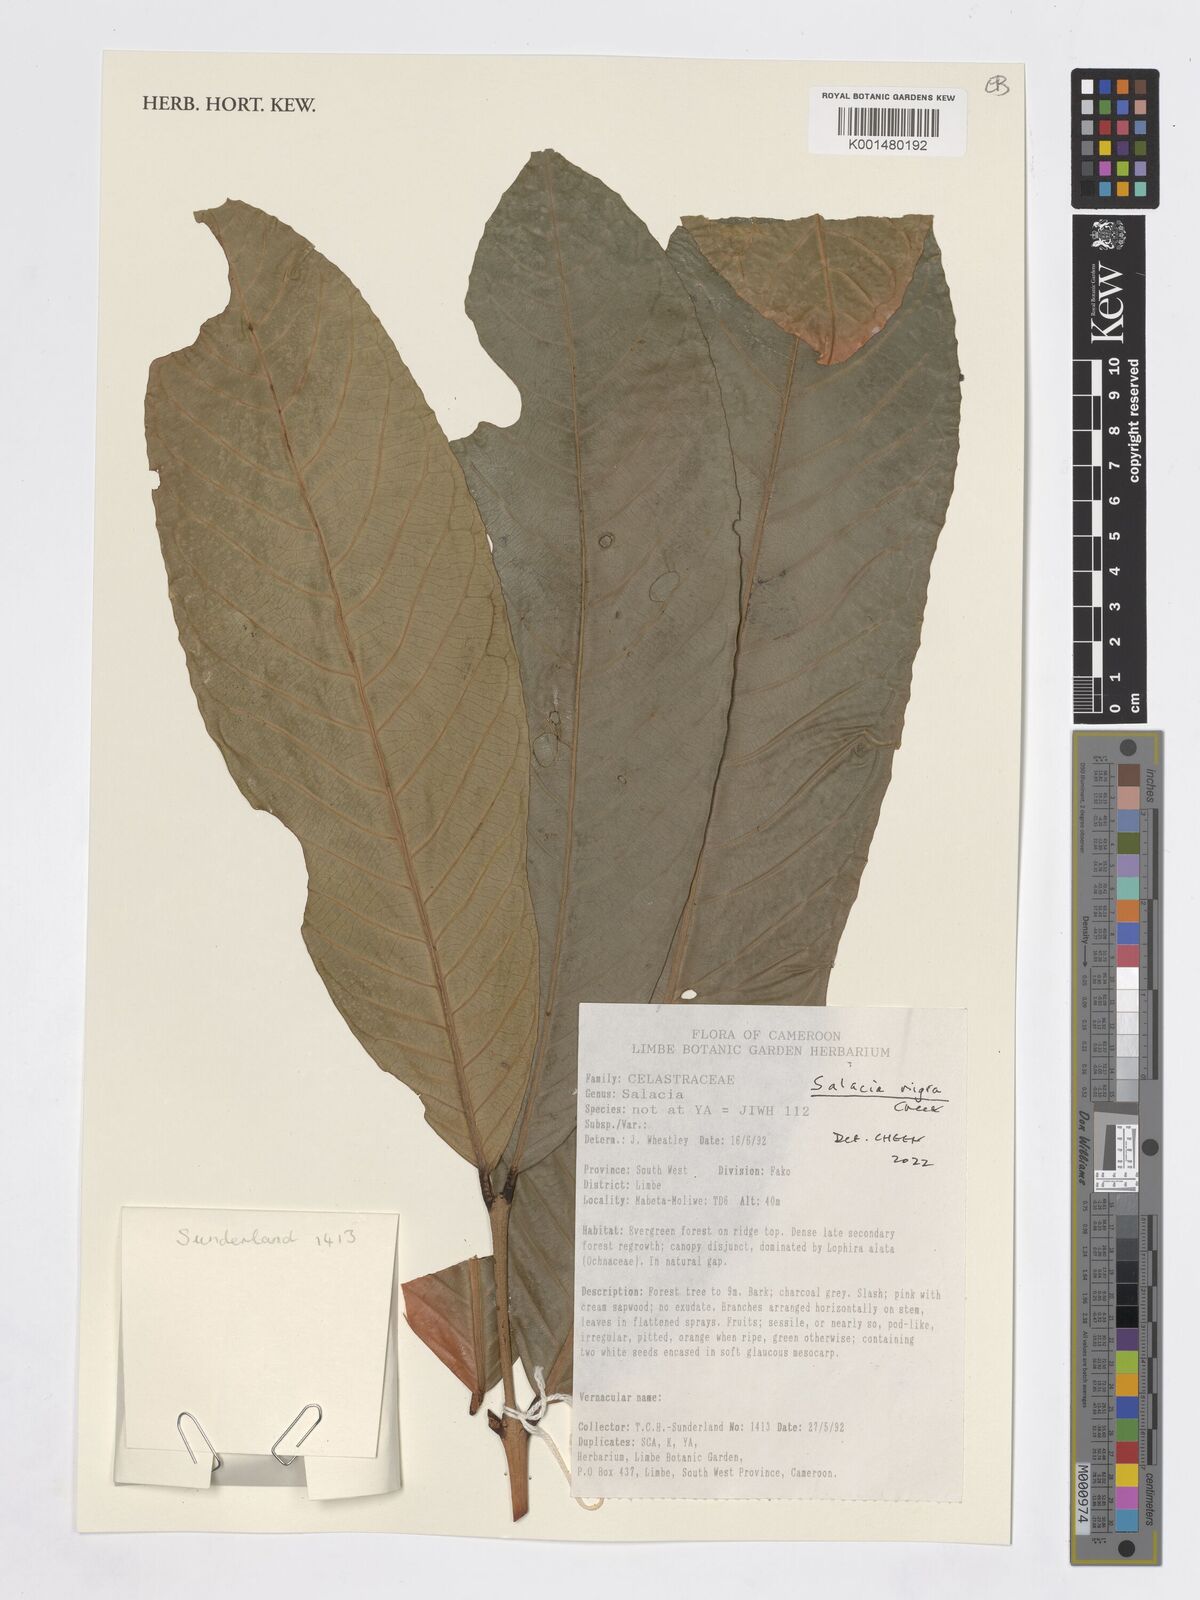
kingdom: Plantae
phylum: Tracheophyta
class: Magnoliopsida
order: Celastrales
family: Celastraceae
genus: Salacia
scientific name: Salacia nigra
